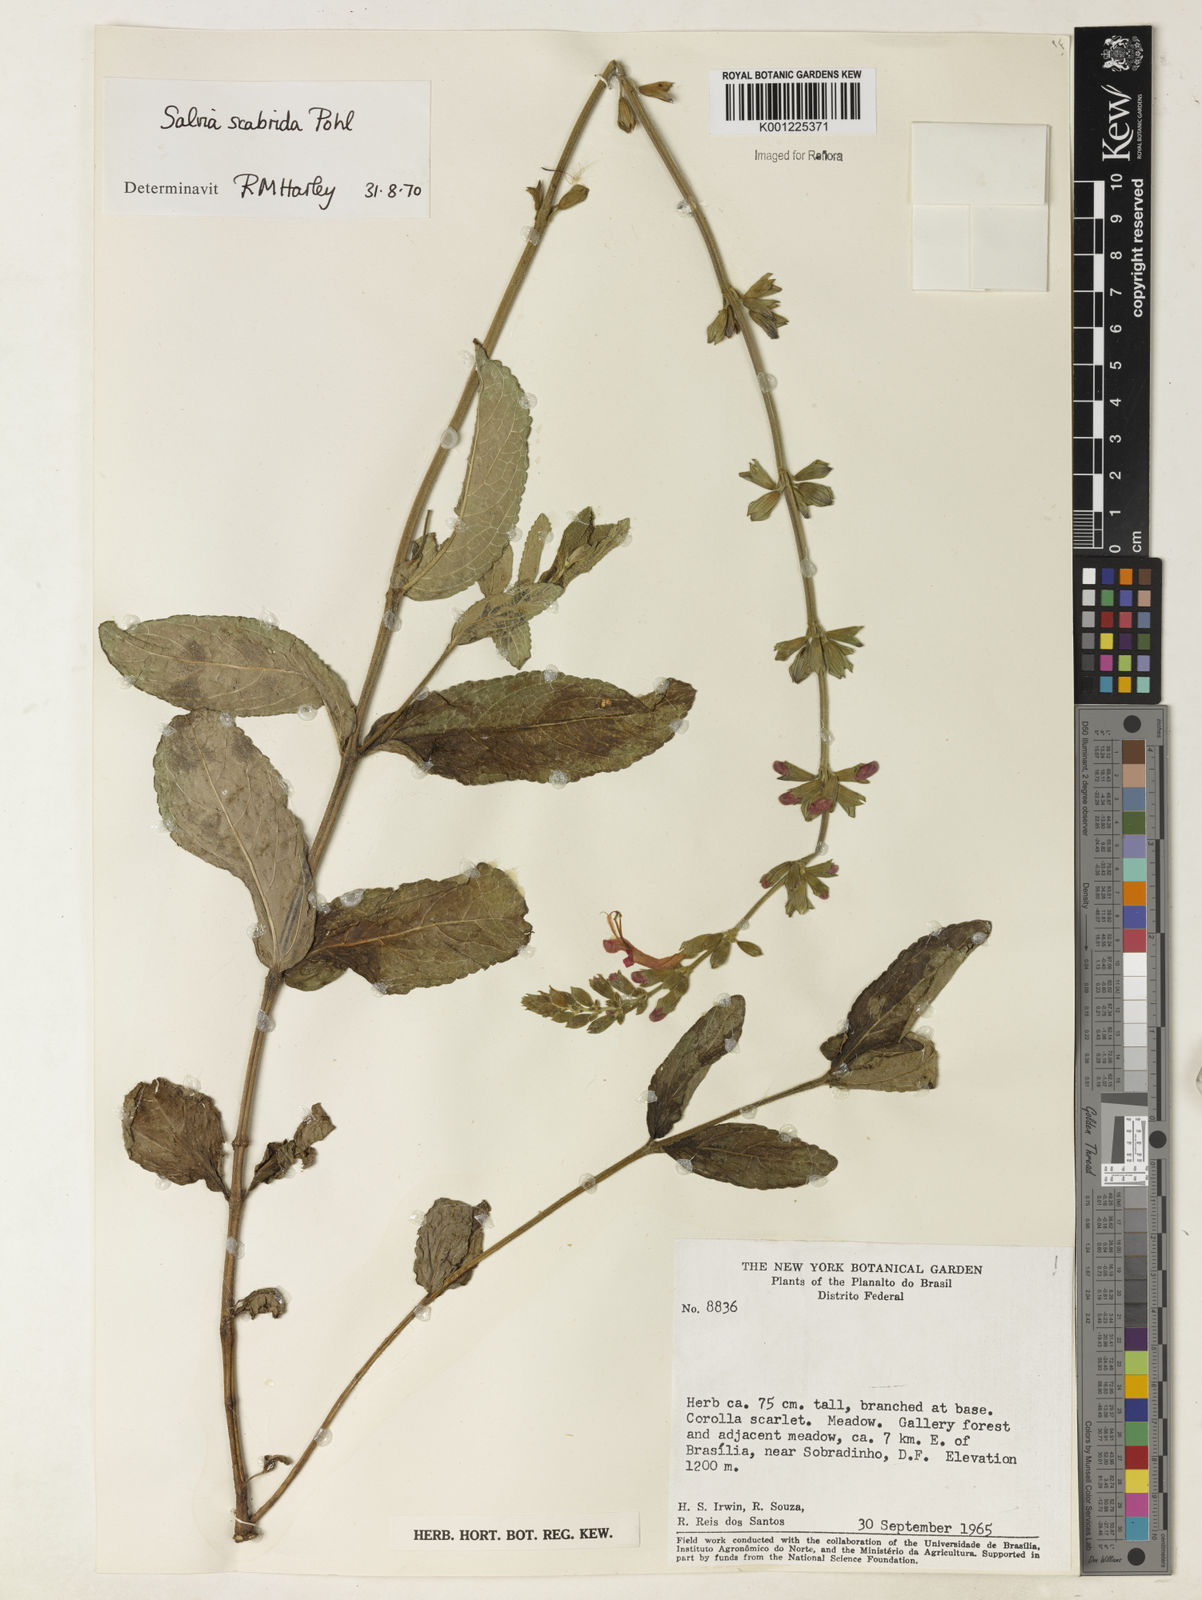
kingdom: Plantae
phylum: Tracheophyta
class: Magnoliopsida
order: Lamiales
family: Lamiaceae
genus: Salvia
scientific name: Salvia scabrida
